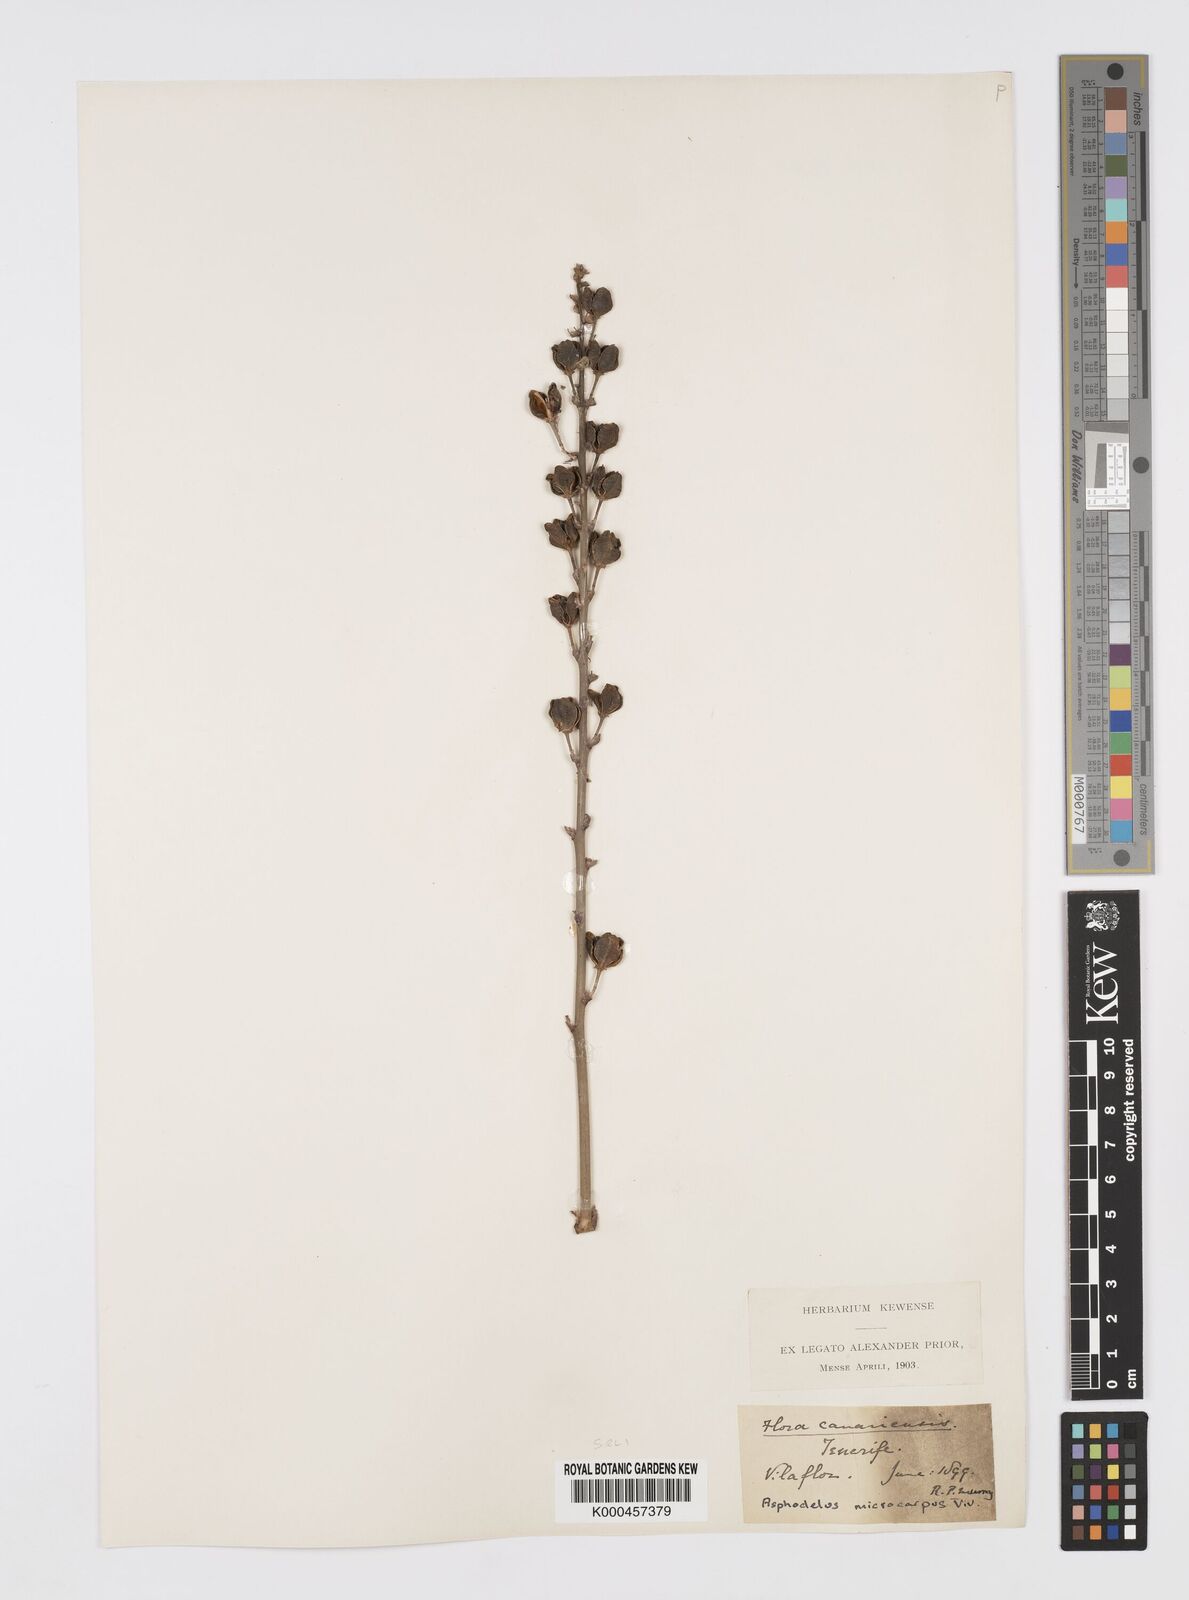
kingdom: Plantae
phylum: Tracheophyta
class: Liliopsida
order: Asparagales
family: Asphodelaceae
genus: Asphodelus
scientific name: Asphodelus aestivus
